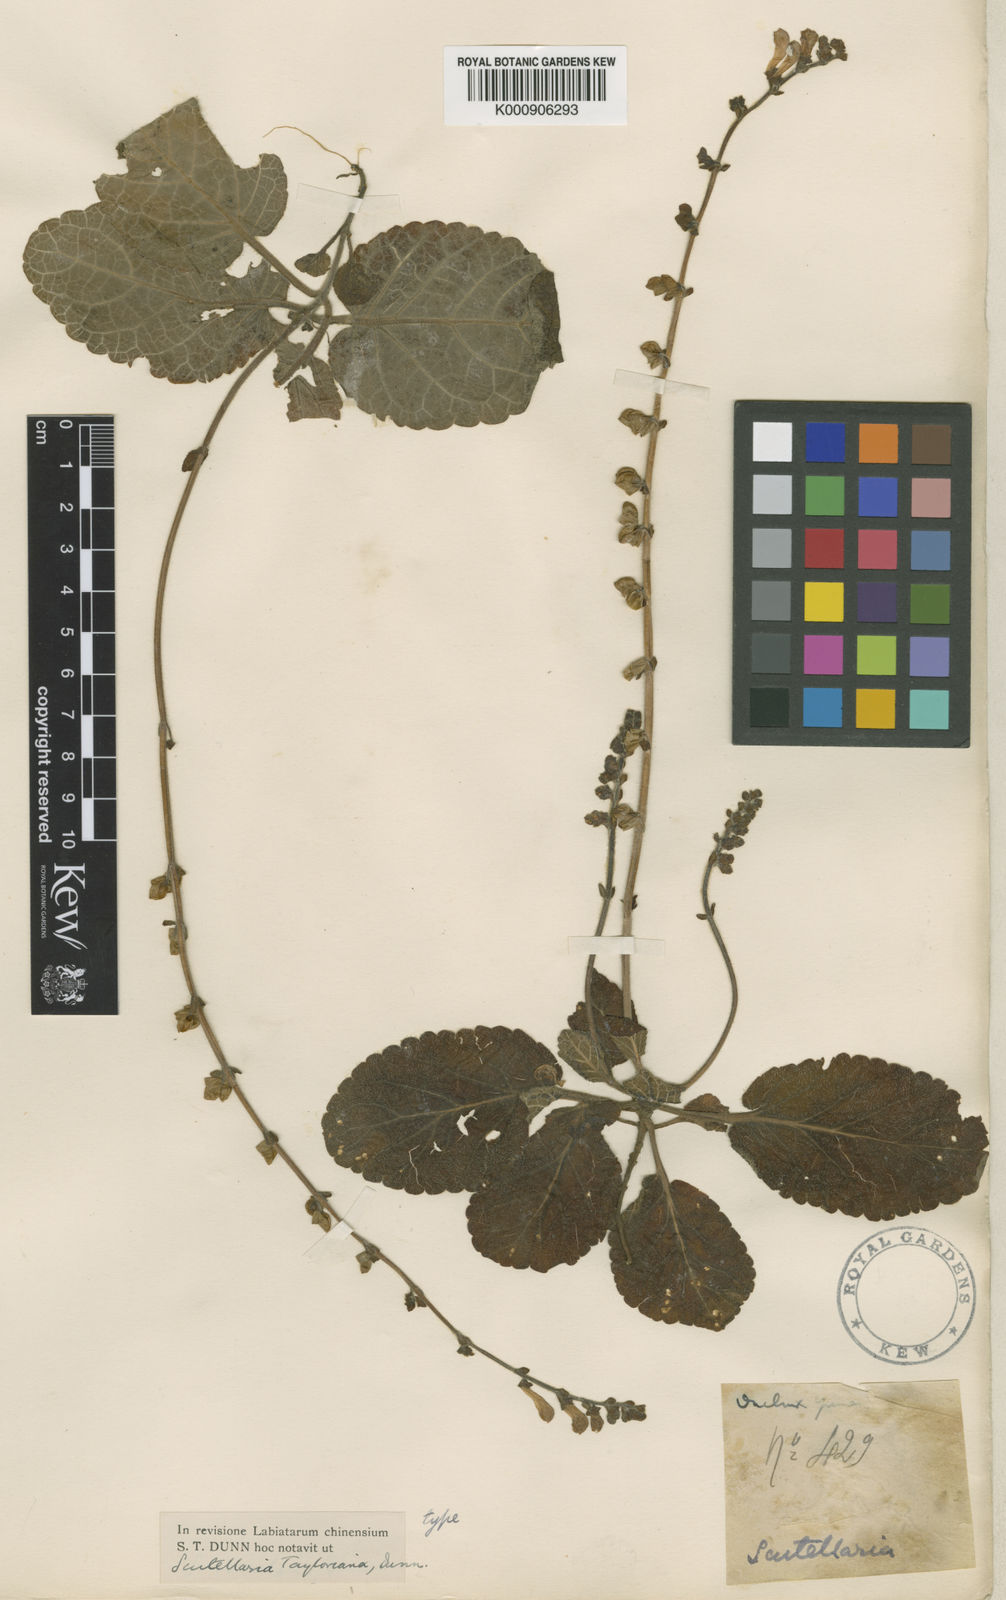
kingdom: Plantae
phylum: Tracheophyta
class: Magnoliopsida
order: Lamiales
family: Lamiaceae
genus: Scutellaria
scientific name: Scutellaria tayloriana
